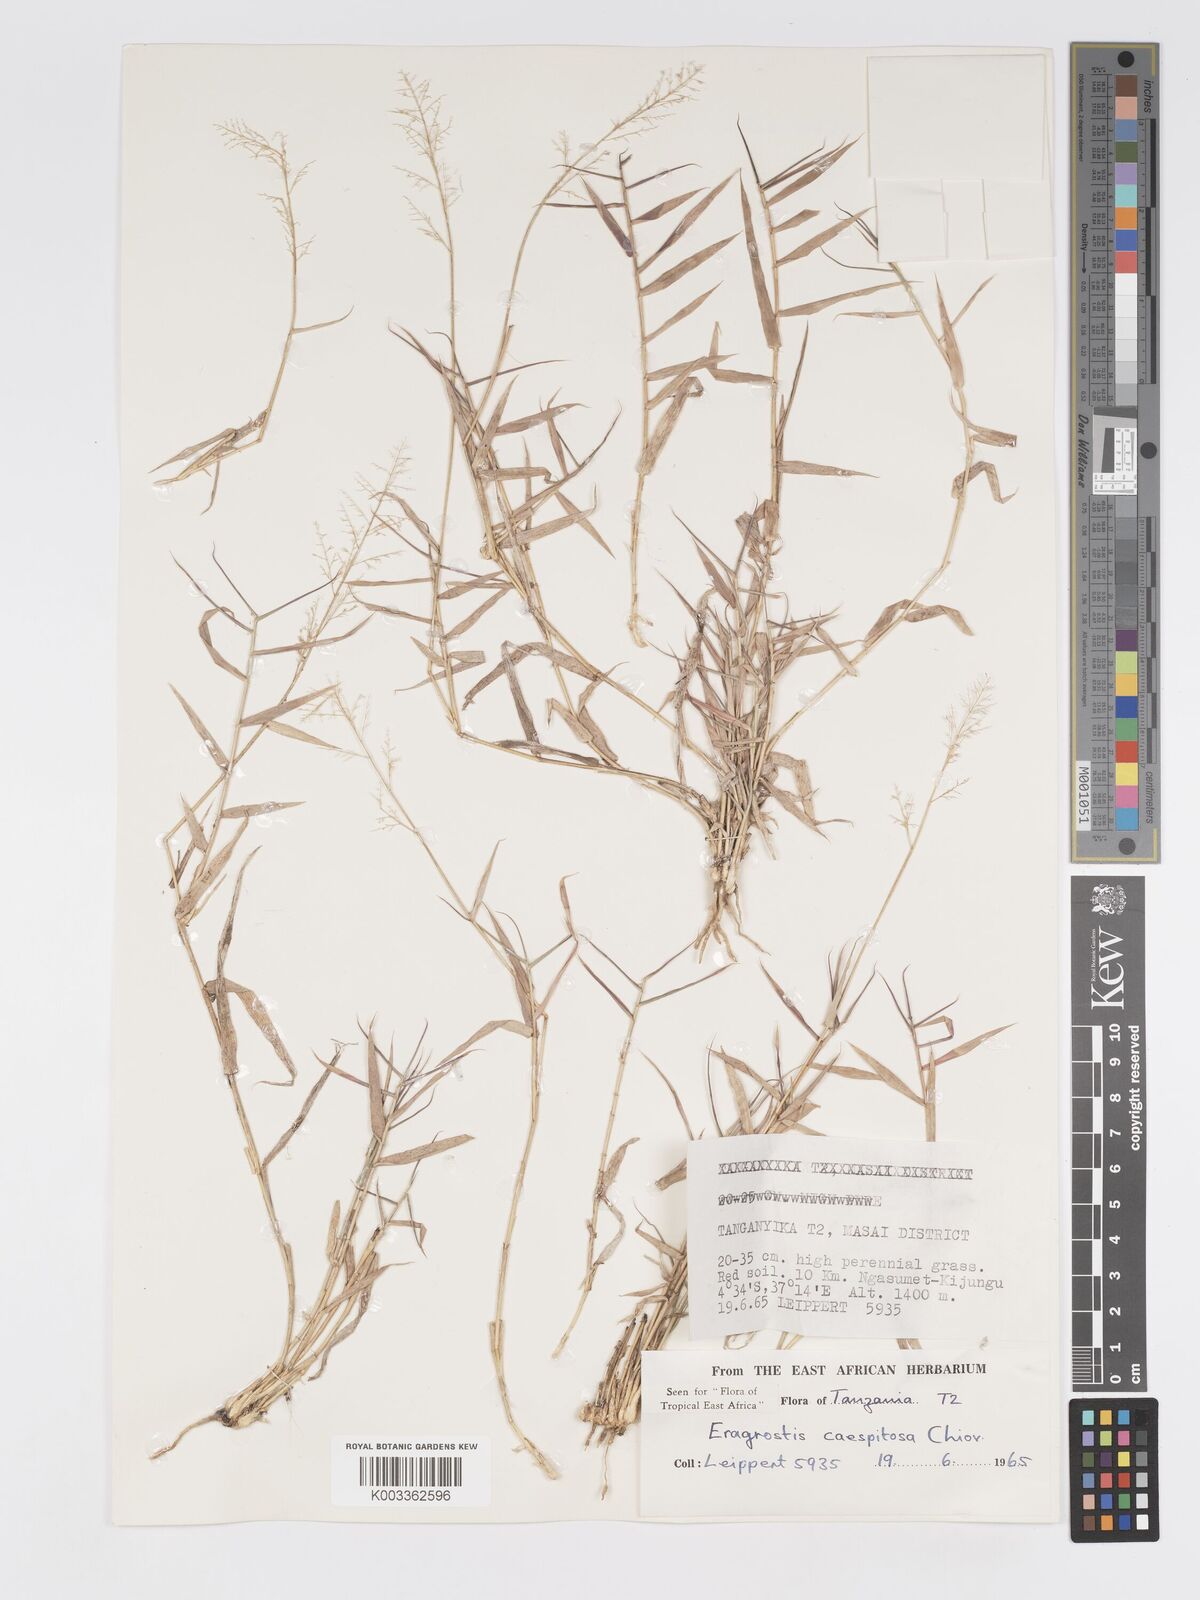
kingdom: Plantae
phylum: Tracheophyta
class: Liliopsida
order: Poales
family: Poaceae
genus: Eragrostis
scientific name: Eragrostis caespitosa
